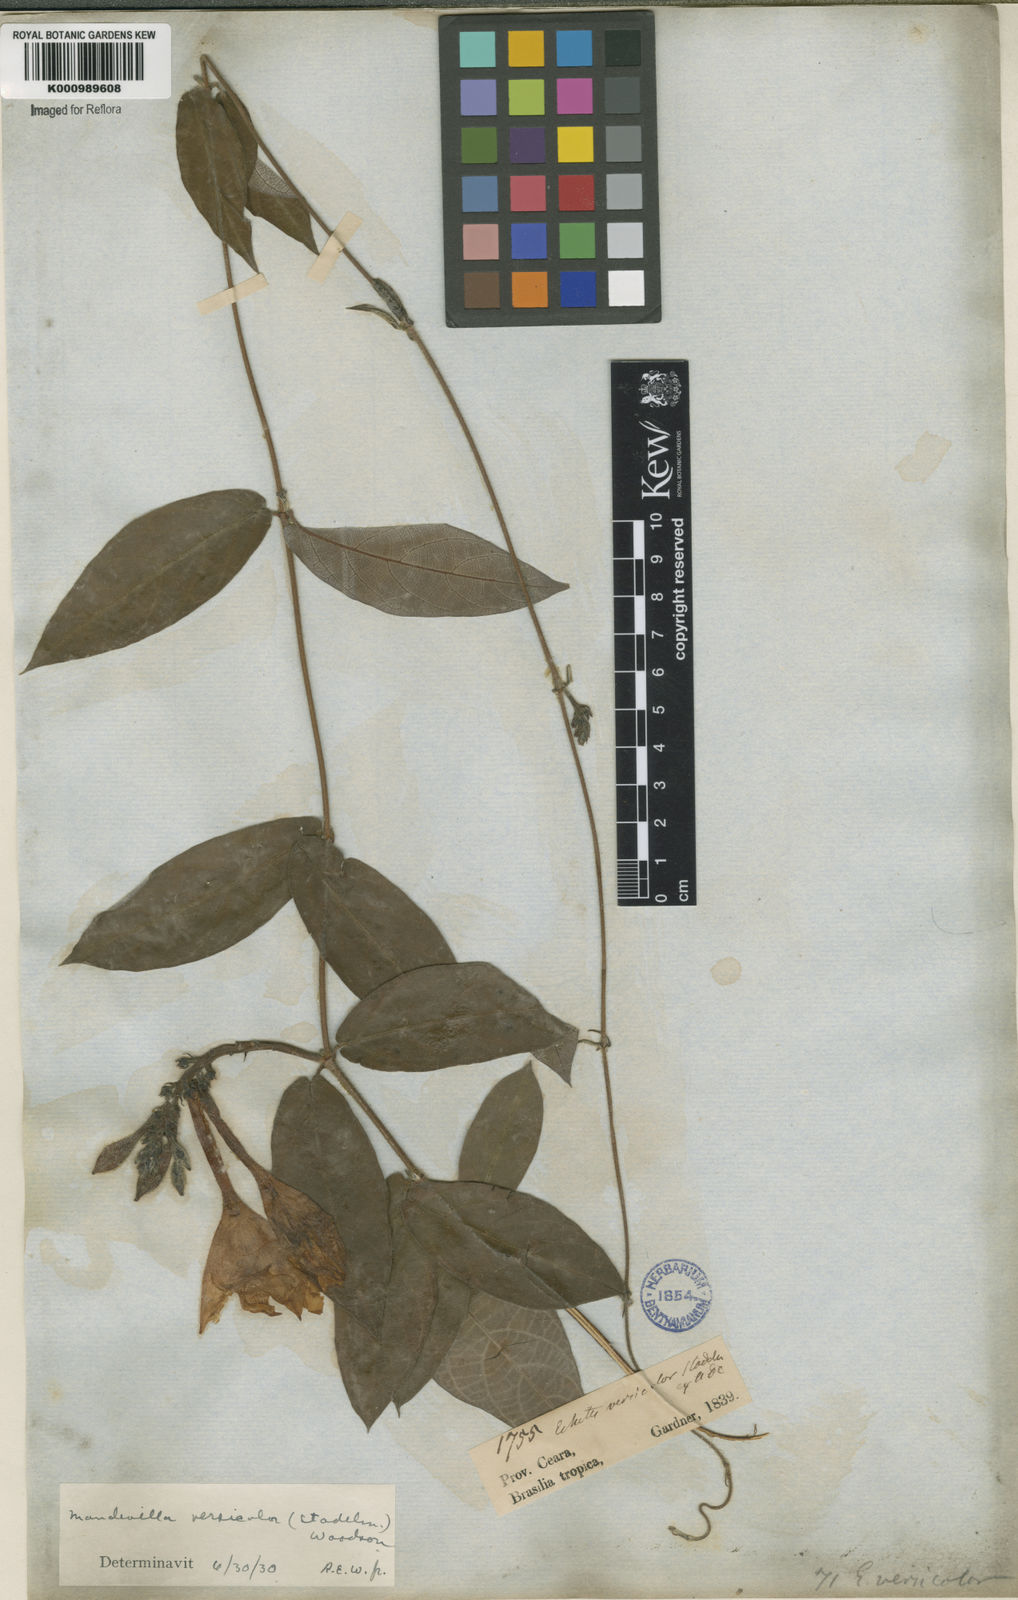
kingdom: Plantae
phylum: Tracheophyta
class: Magnoliopsida
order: Gentianales
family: Apocynaceae
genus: Mandevilla
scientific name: Mandevilla scabra
